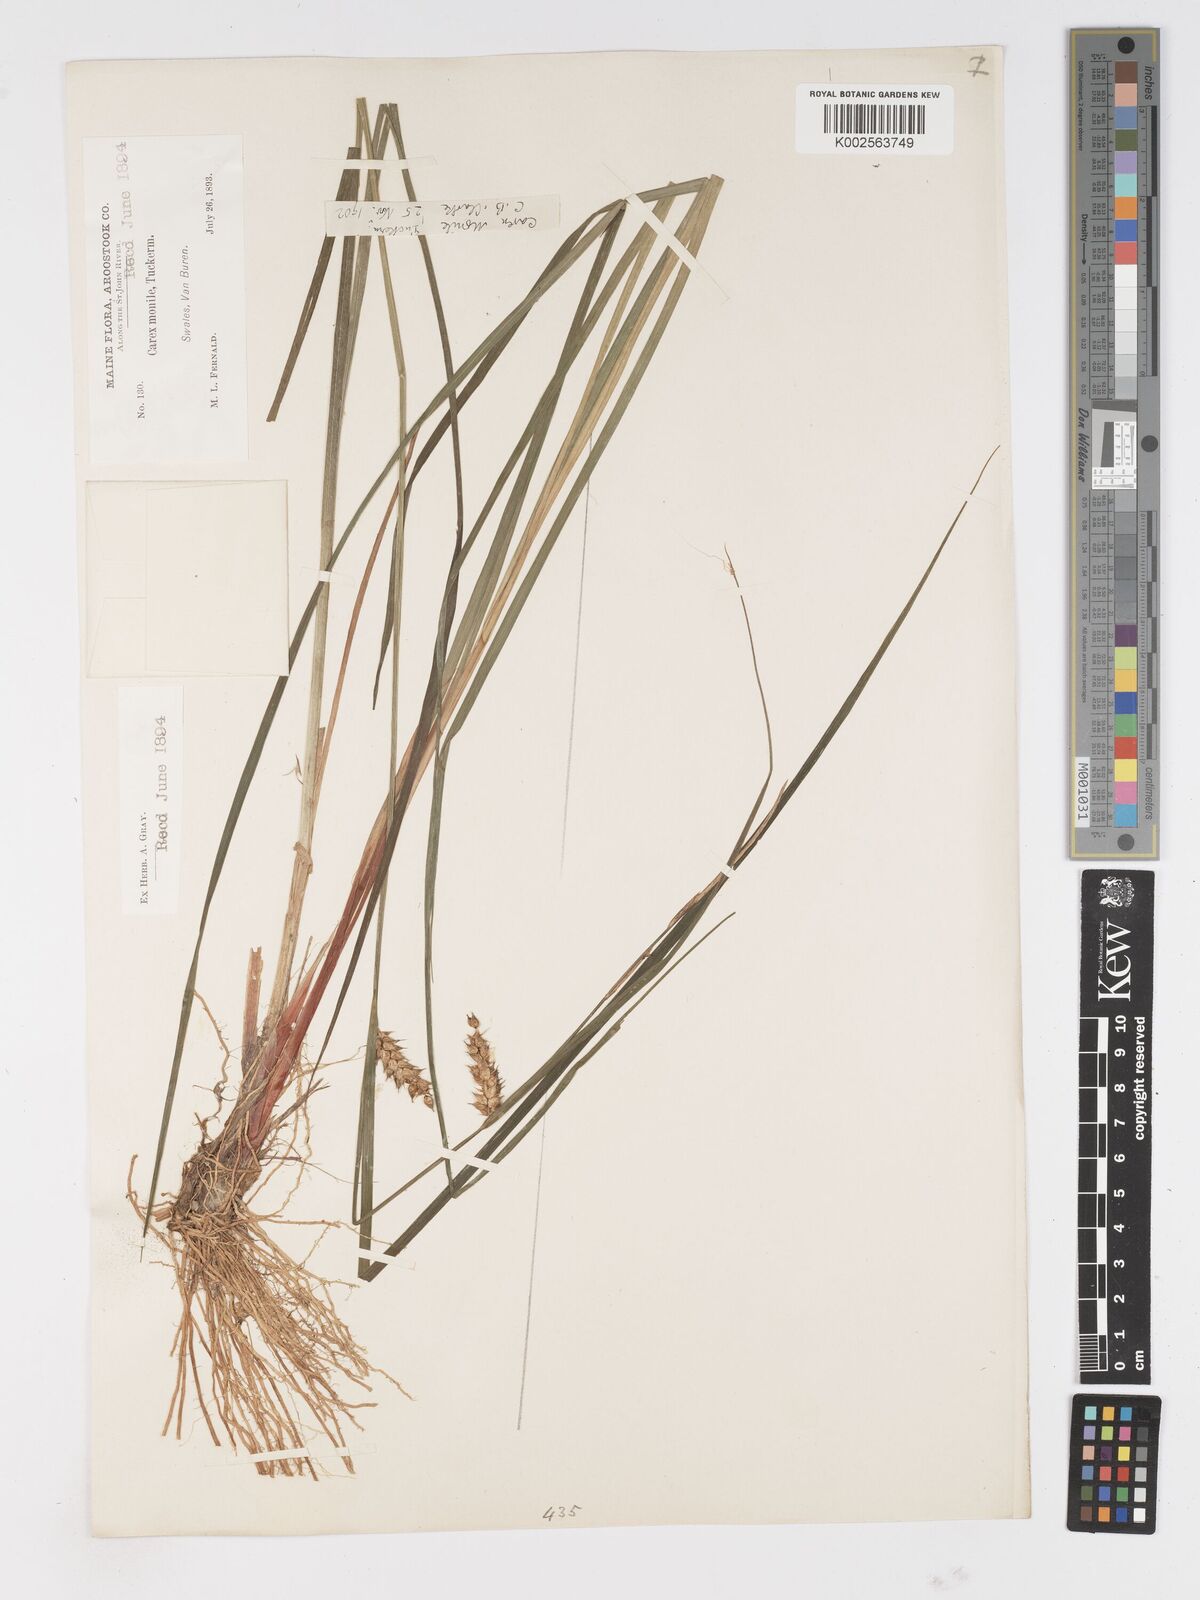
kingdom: Plantae
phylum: Tracheophyta
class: Liliopsida
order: Poales
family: Cyperaceae
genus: Carex
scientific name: Carex vesicaria
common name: Bladder-sedge
